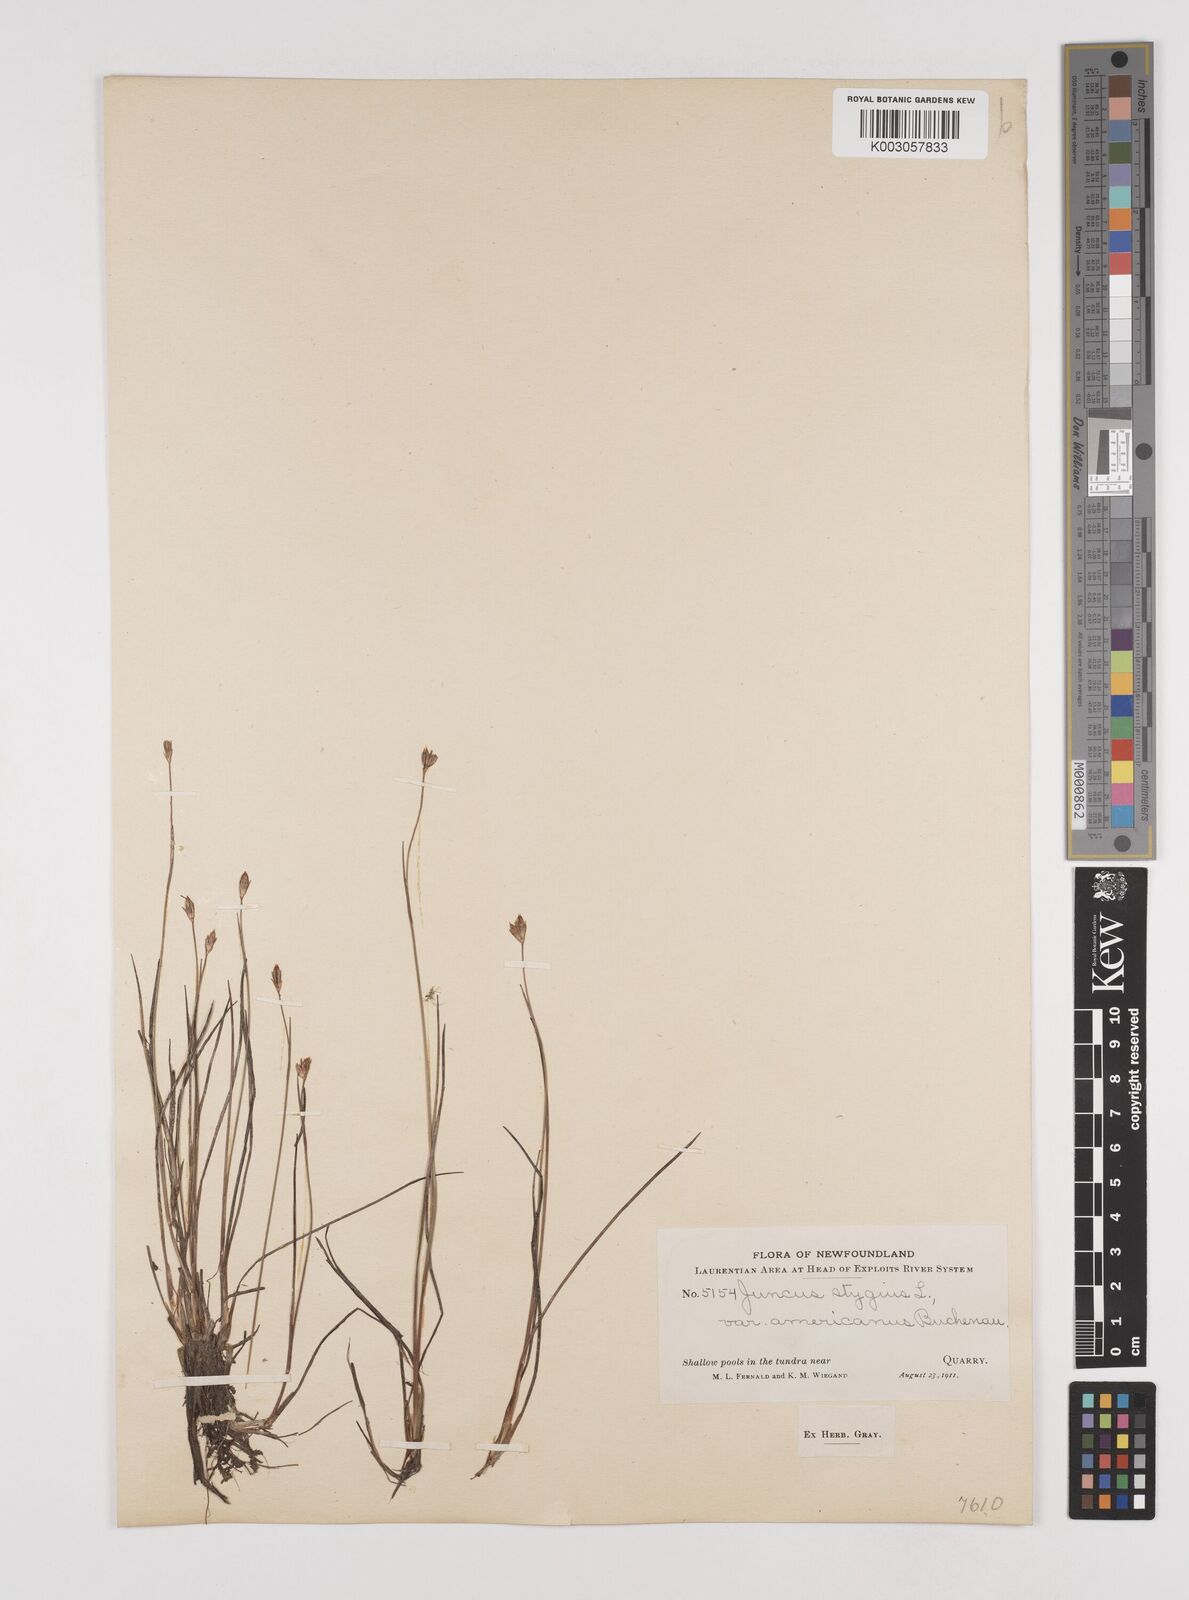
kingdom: Plantae
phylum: Tracheophyta
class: Liliopsida
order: Poales
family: Juncaceae
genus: Juncus
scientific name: Juncus stygius
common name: Bog rush
